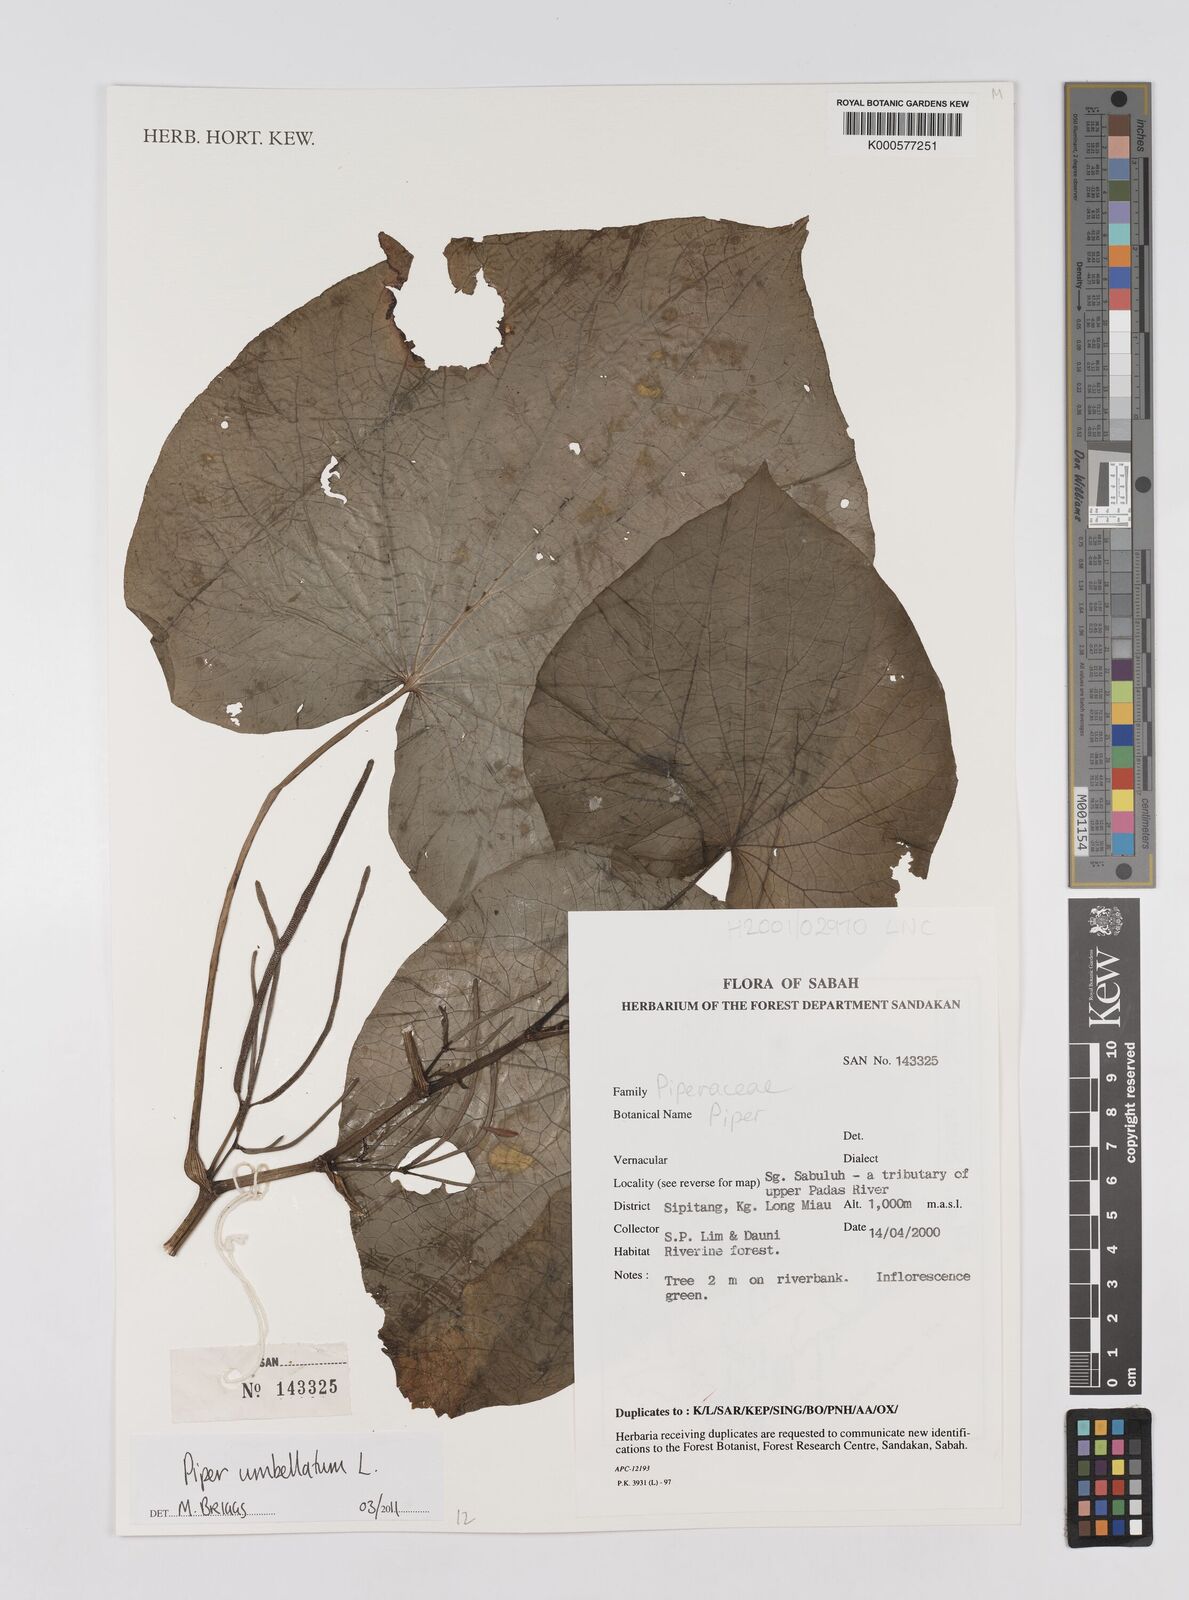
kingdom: Plantae
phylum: Tracheophyta
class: Magnoliopsida
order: Piperales
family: Piperaceae
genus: Piper
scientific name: Piper umbellatum
